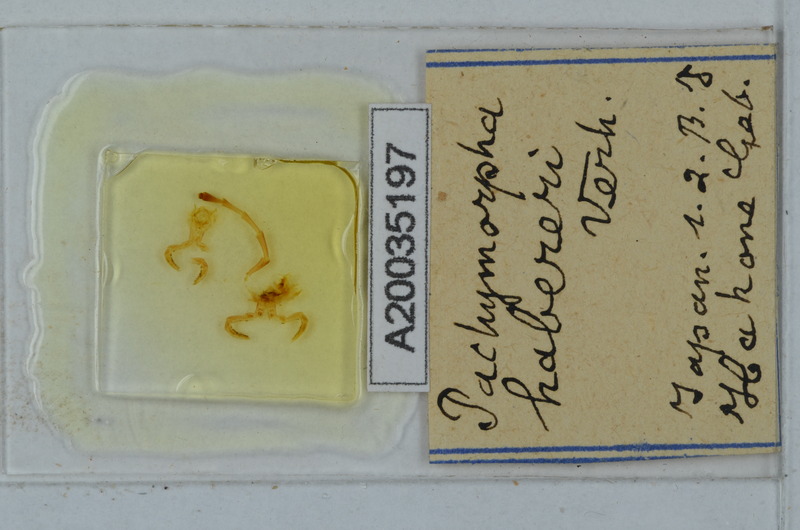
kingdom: Animalia
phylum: Arthropoda
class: Insecta
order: Phasmida
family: Phasmatidae
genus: Pachymorpha
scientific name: Pachymorpha
